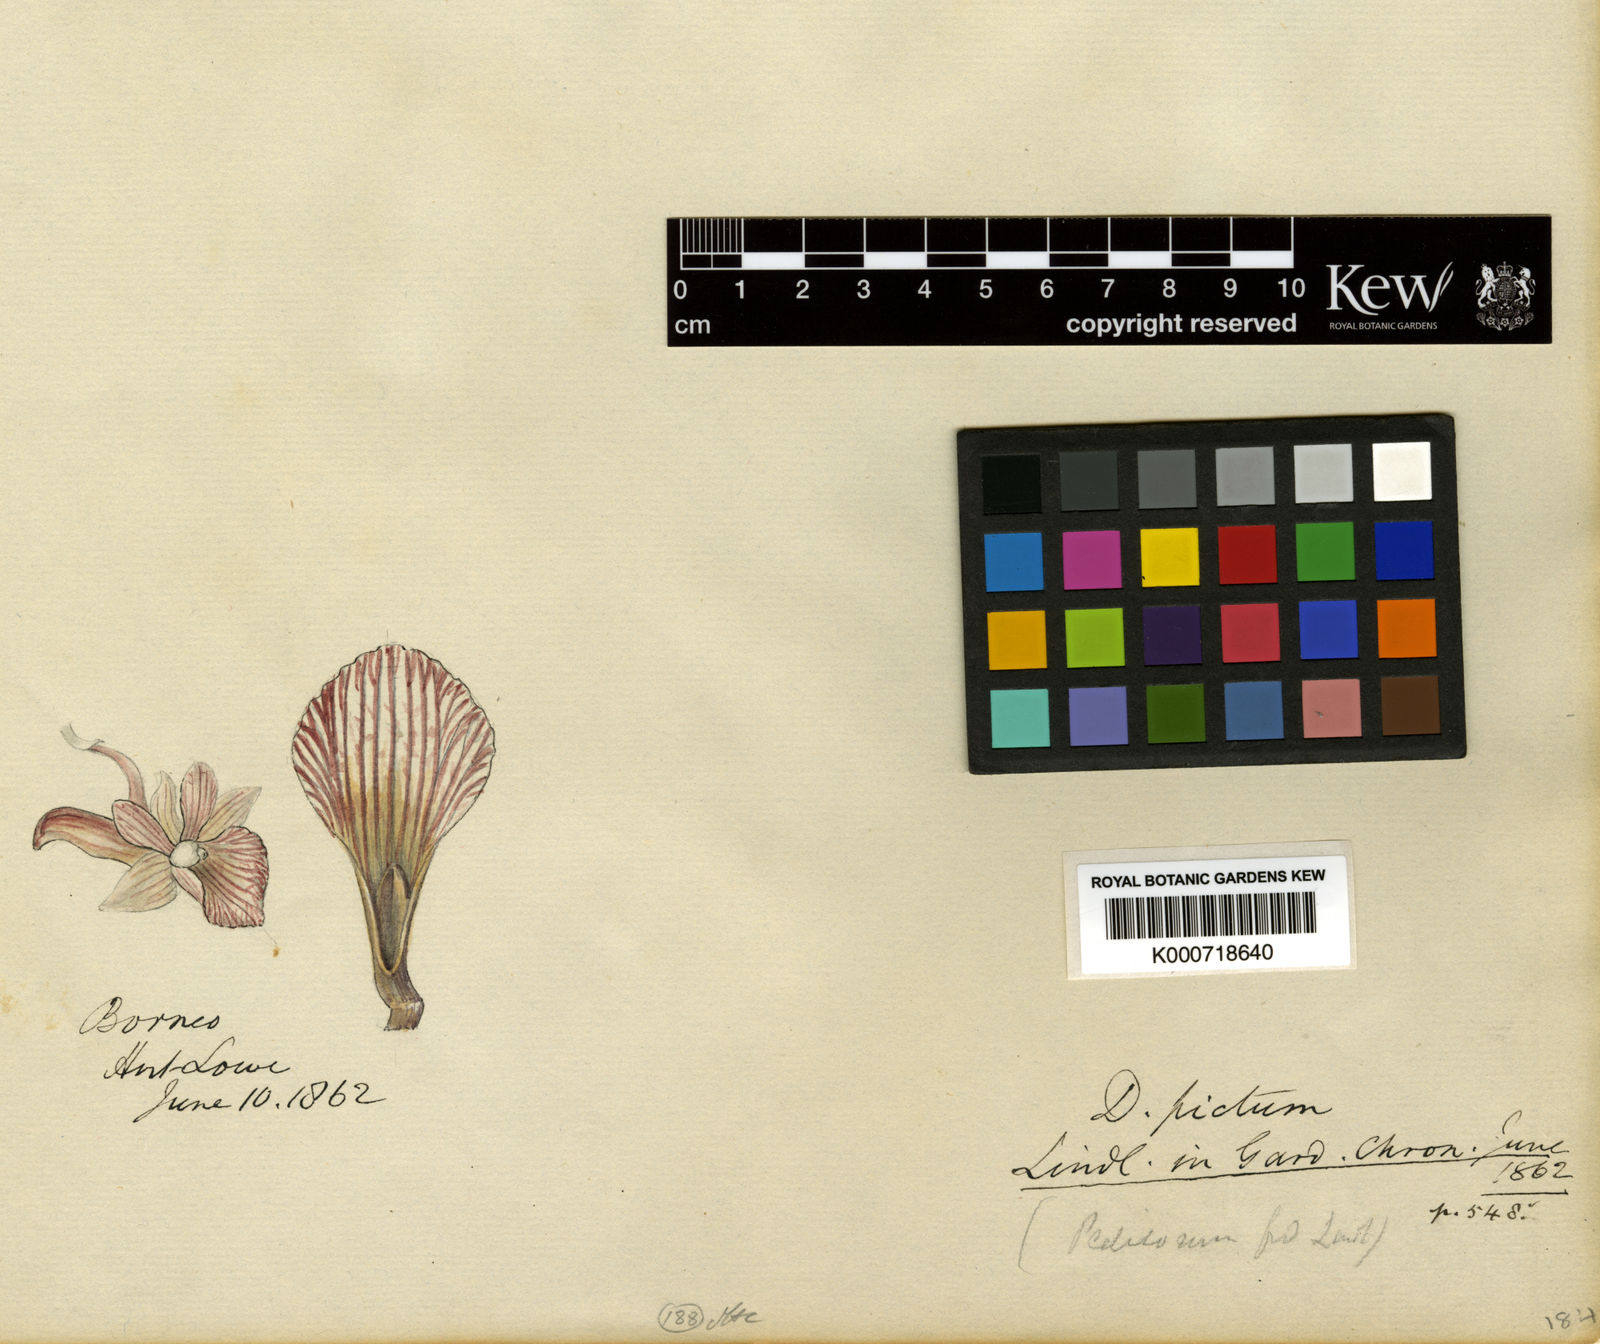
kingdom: Plantae
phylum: Tracheophyta
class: Liliopsida
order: Asparagales
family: Orchidaceae
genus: Dendrobium
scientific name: Dendrobium pictum
